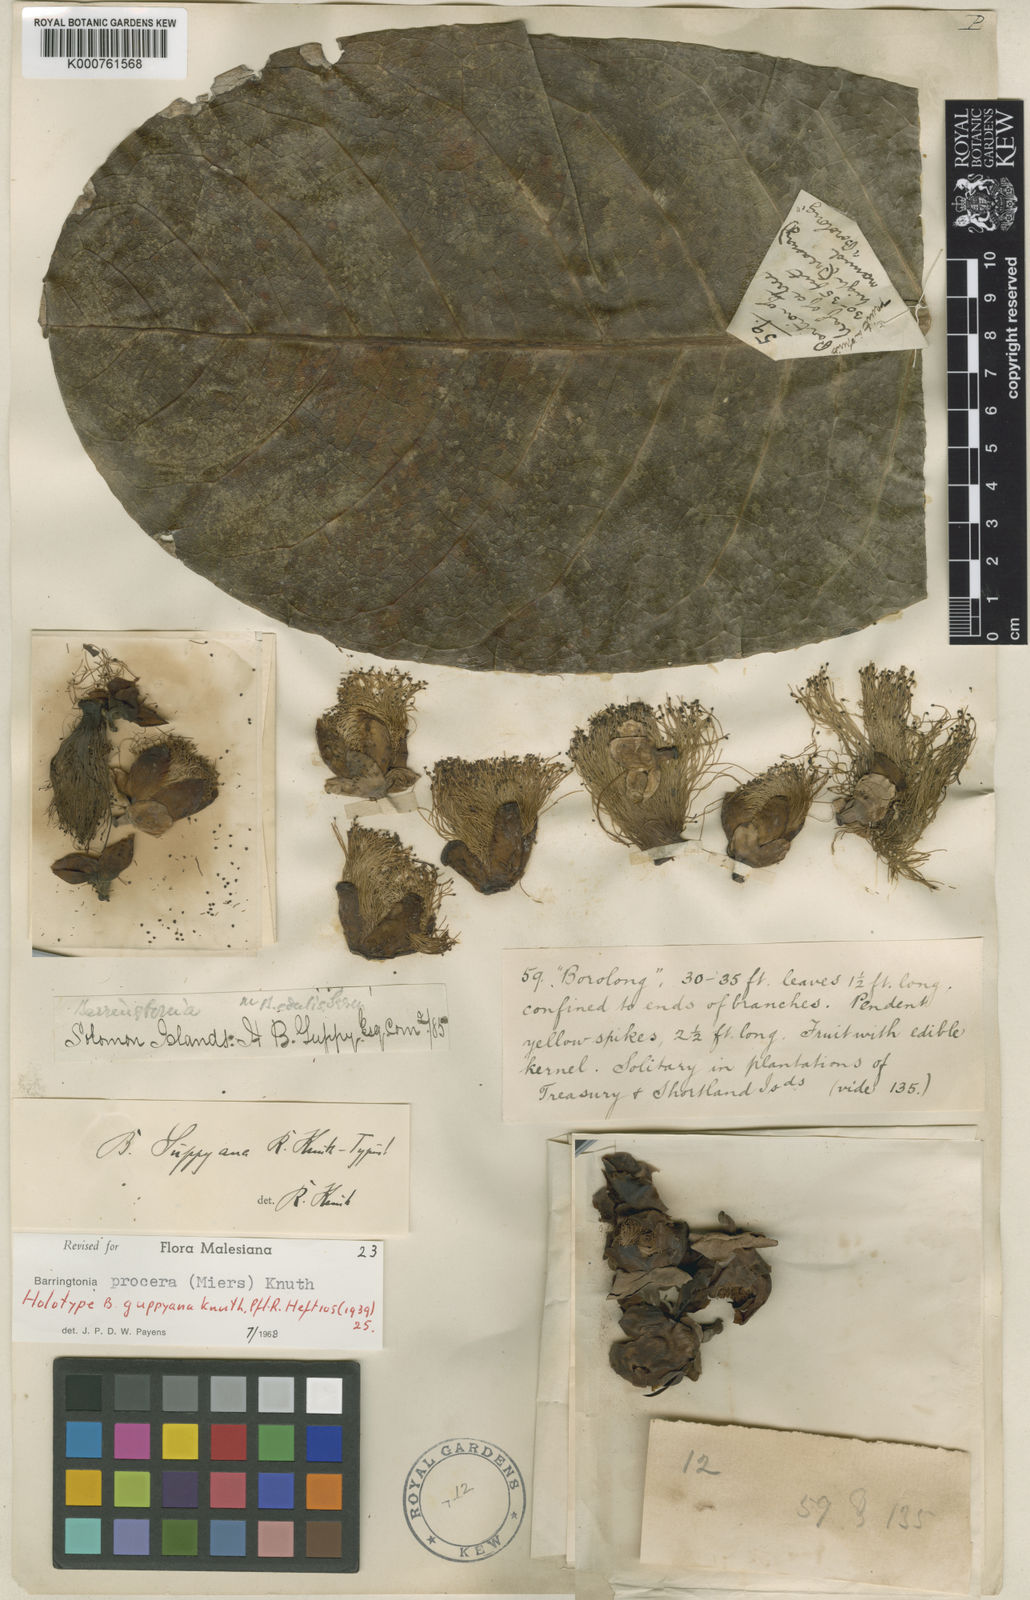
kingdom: Plantae
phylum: Tracheophyta
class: Magnoliopsida
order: Ericales
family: Lecythidaceae
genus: Barringtonia
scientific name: Barringtonia procera
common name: Cutnut
